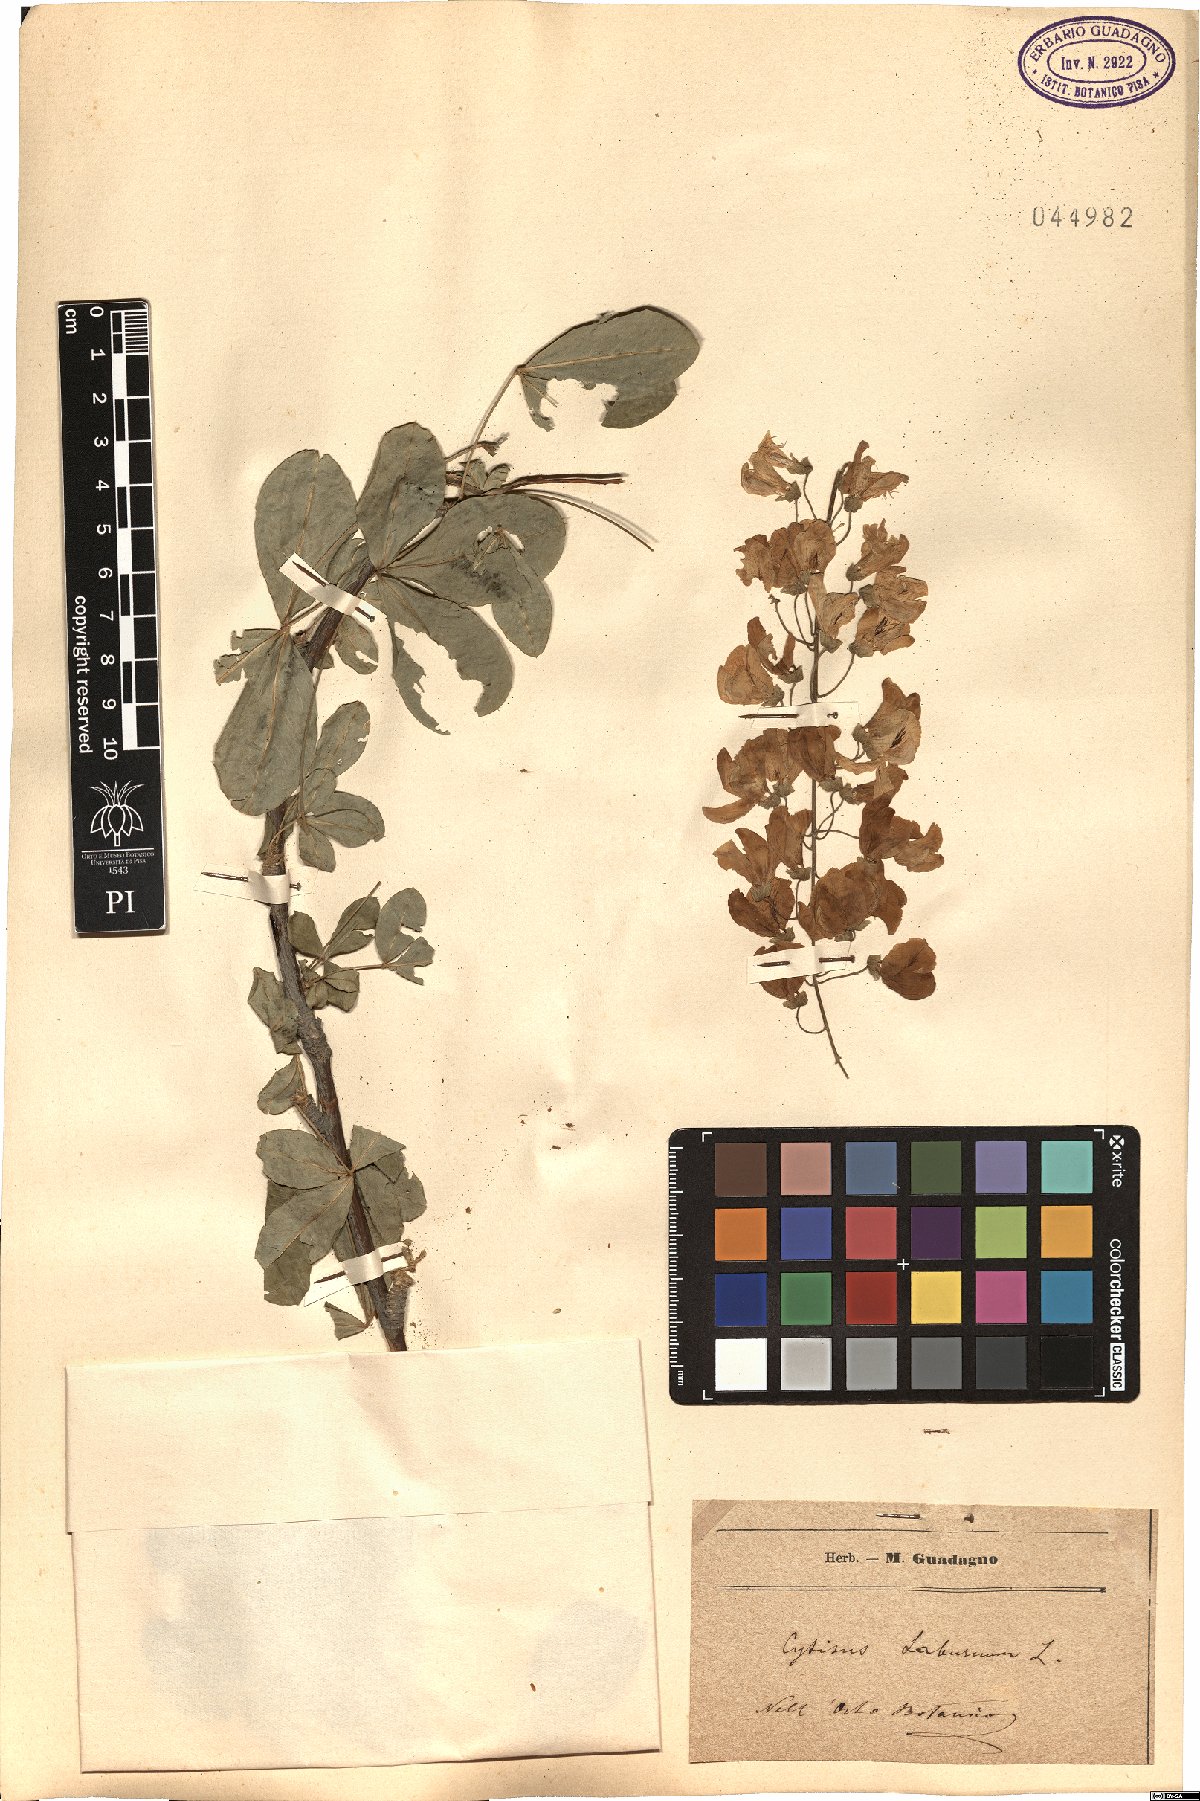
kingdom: Plantae
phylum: Tracheophyta
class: Magnoliopsida
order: Fabales
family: Fabaceae
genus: Laburnum
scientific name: Laburnum anagyroides
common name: Laburnum
